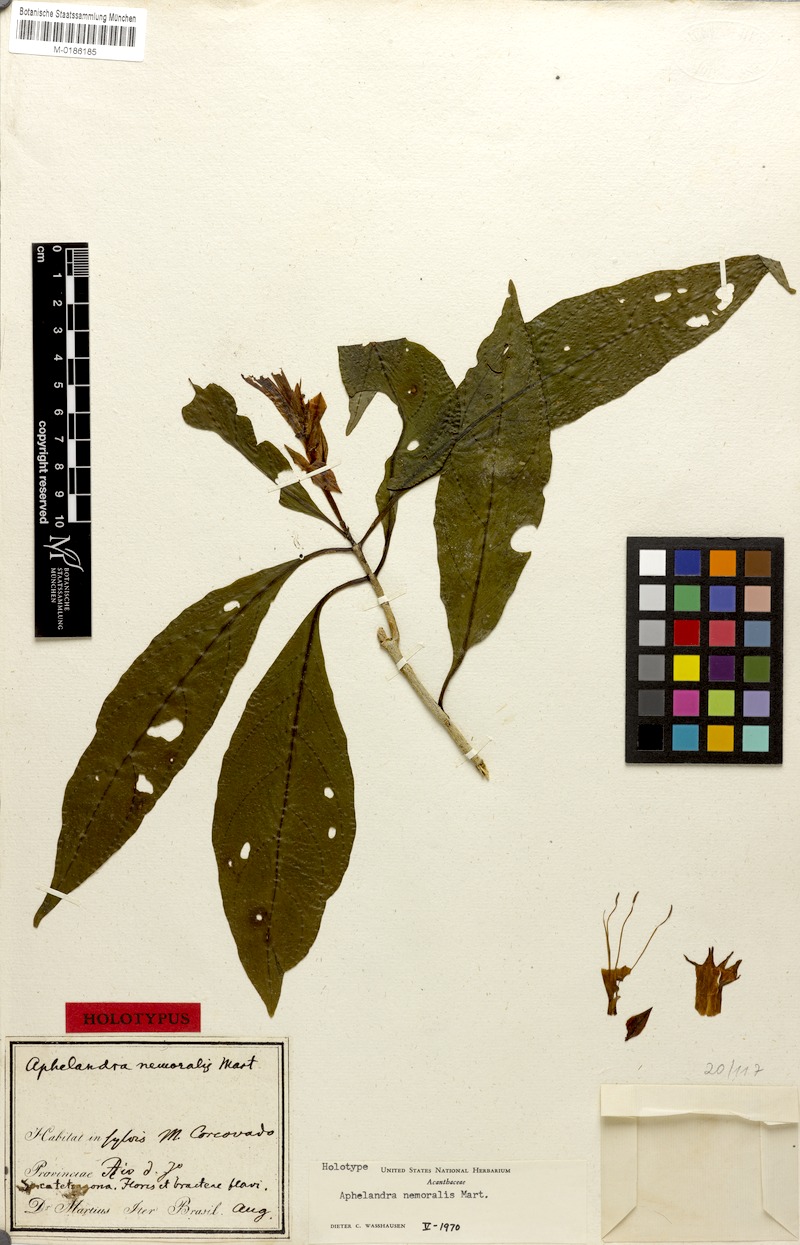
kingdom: Plantae
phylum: Tracheophyta
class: Magnoliopsida
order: Lamiales
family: Acanthaceae
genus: Aphelandra
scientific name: Aphelandra nemoralis
